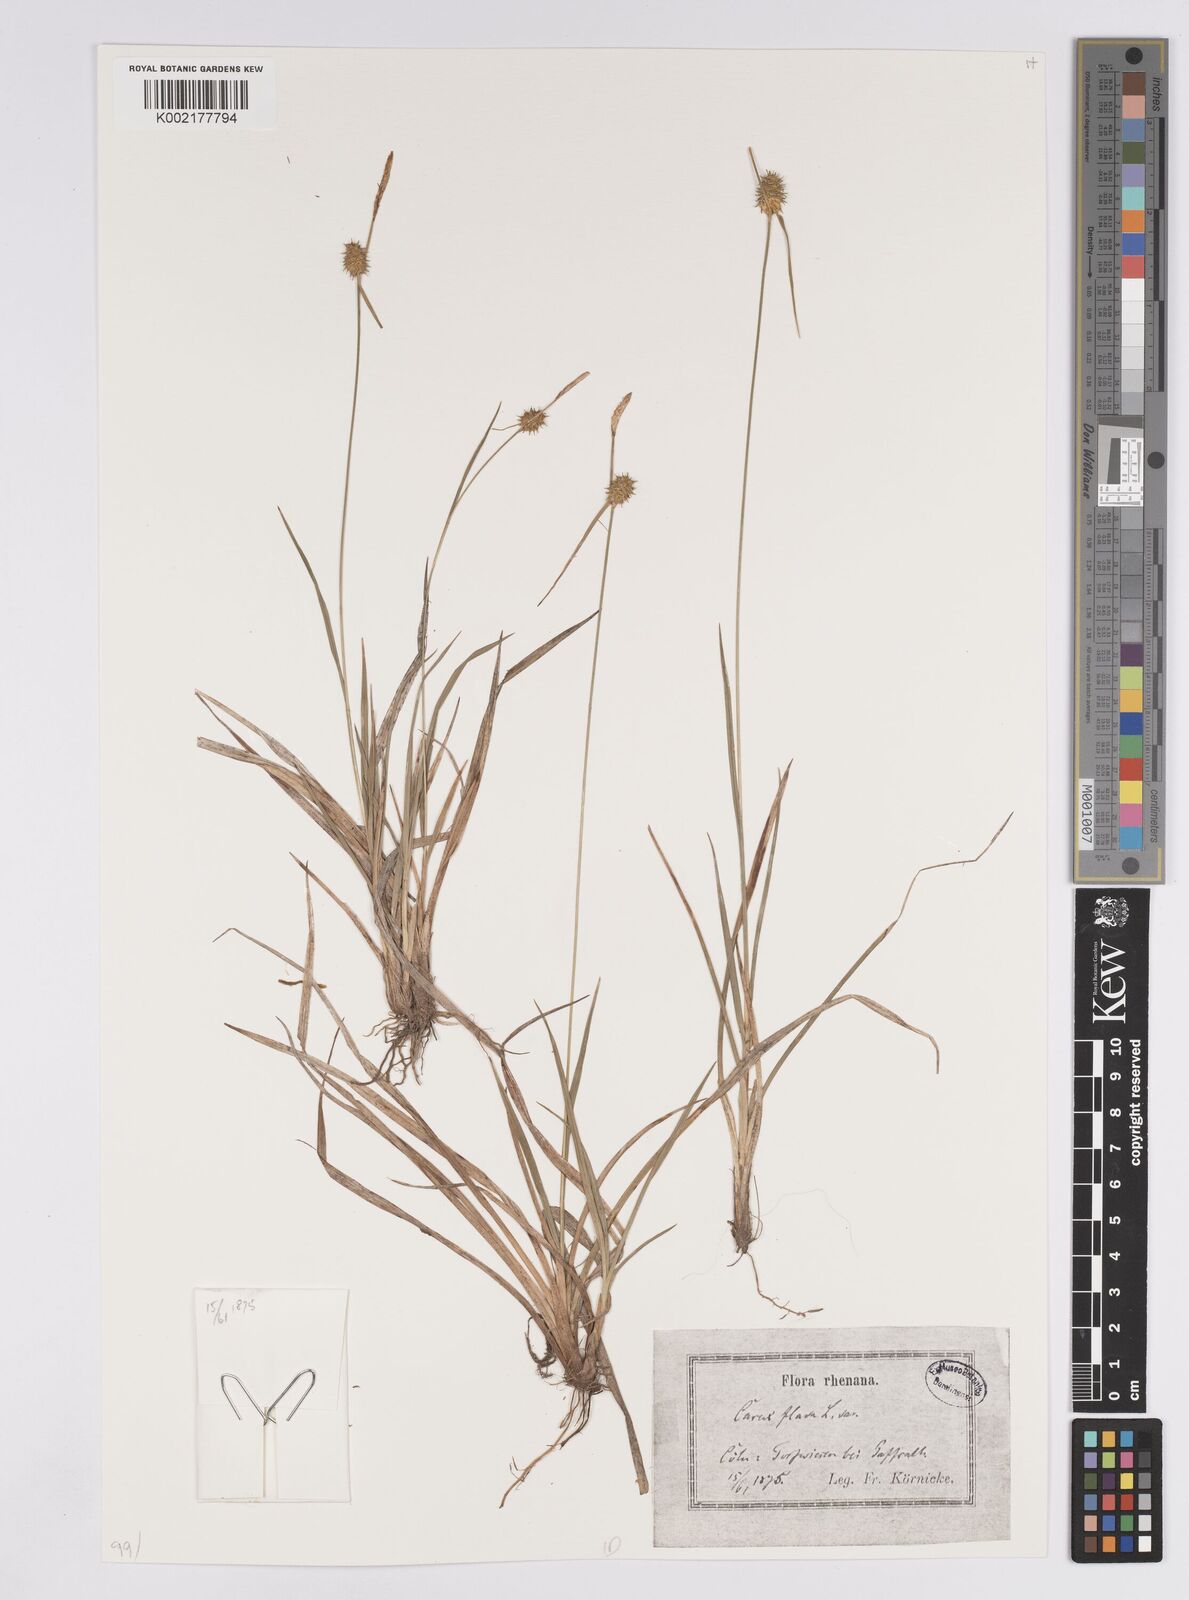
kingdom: Plantae
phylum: Tracheophyta
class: Liliopsida
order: Poales
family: Cyperaceae
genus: Carex
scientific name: Carex flava
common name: Large yellow-sedge
